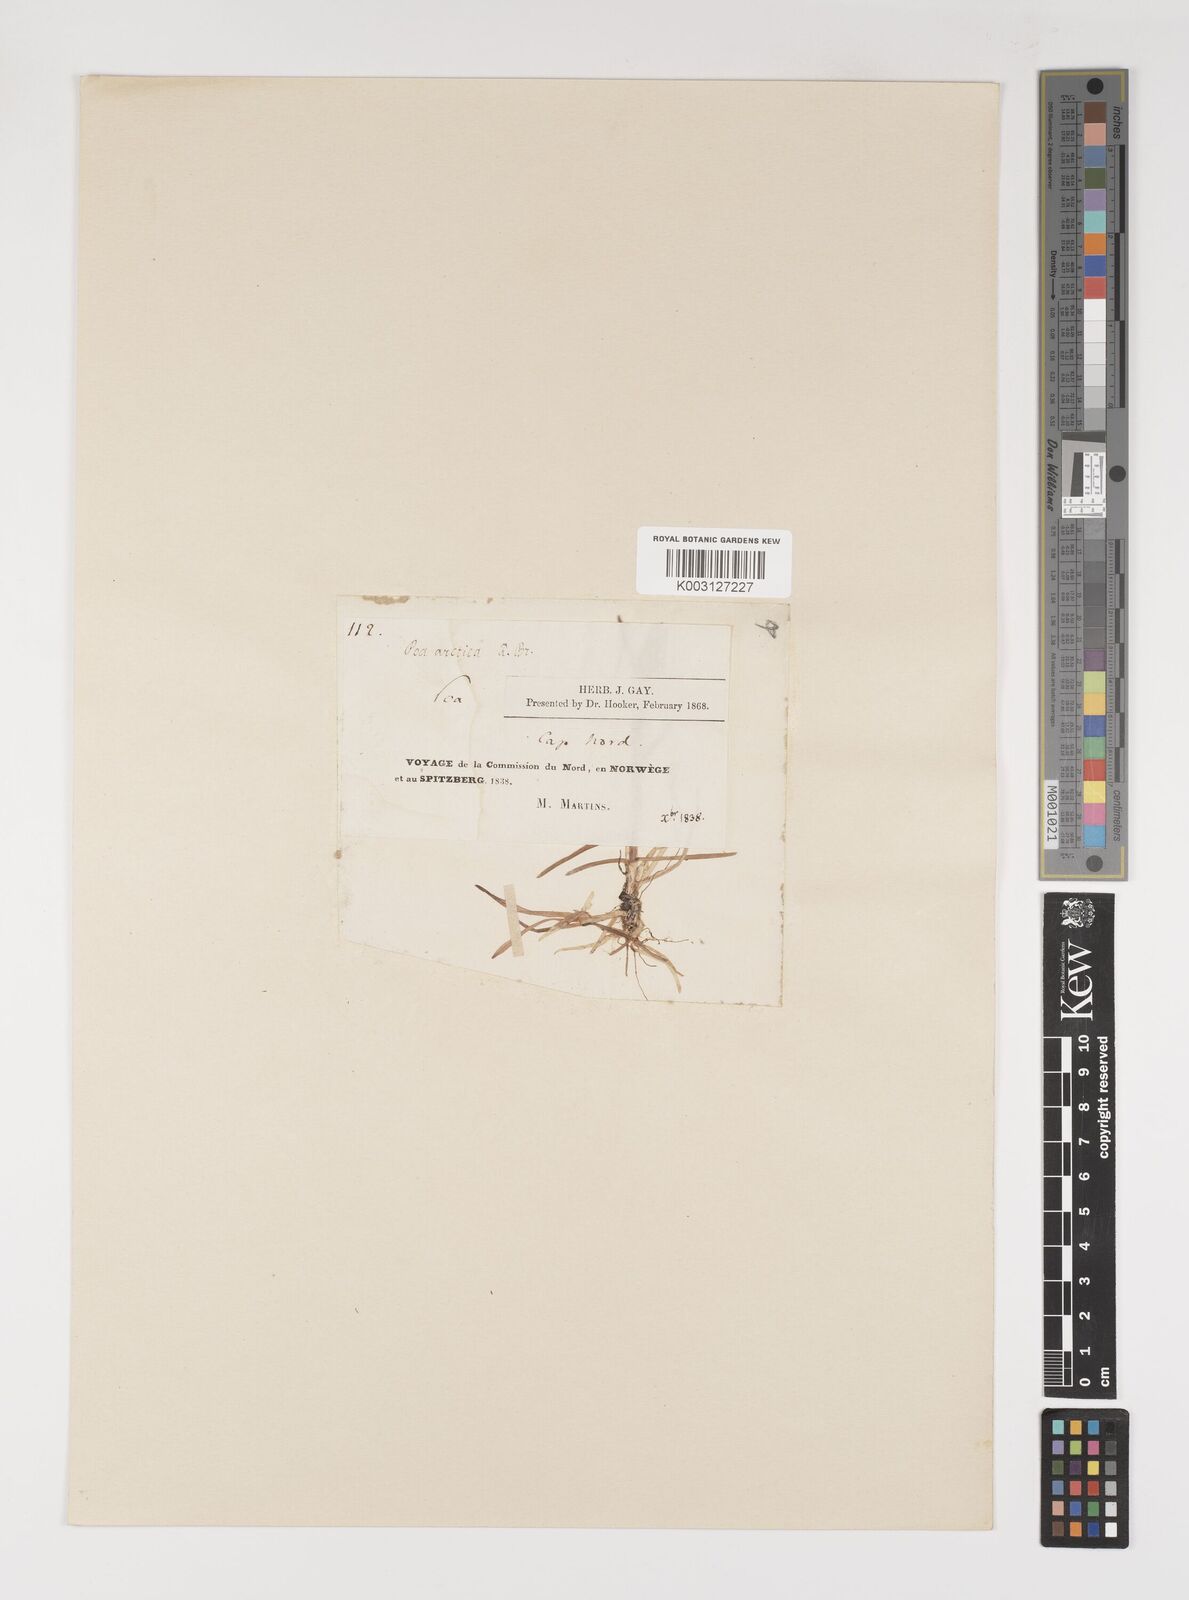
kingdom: Plantae
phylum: Tracheophyta
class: Liliopsida
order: Poales
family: Poaceae
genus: Poa
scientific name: Poa alpina
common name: Alpine bluegrass
